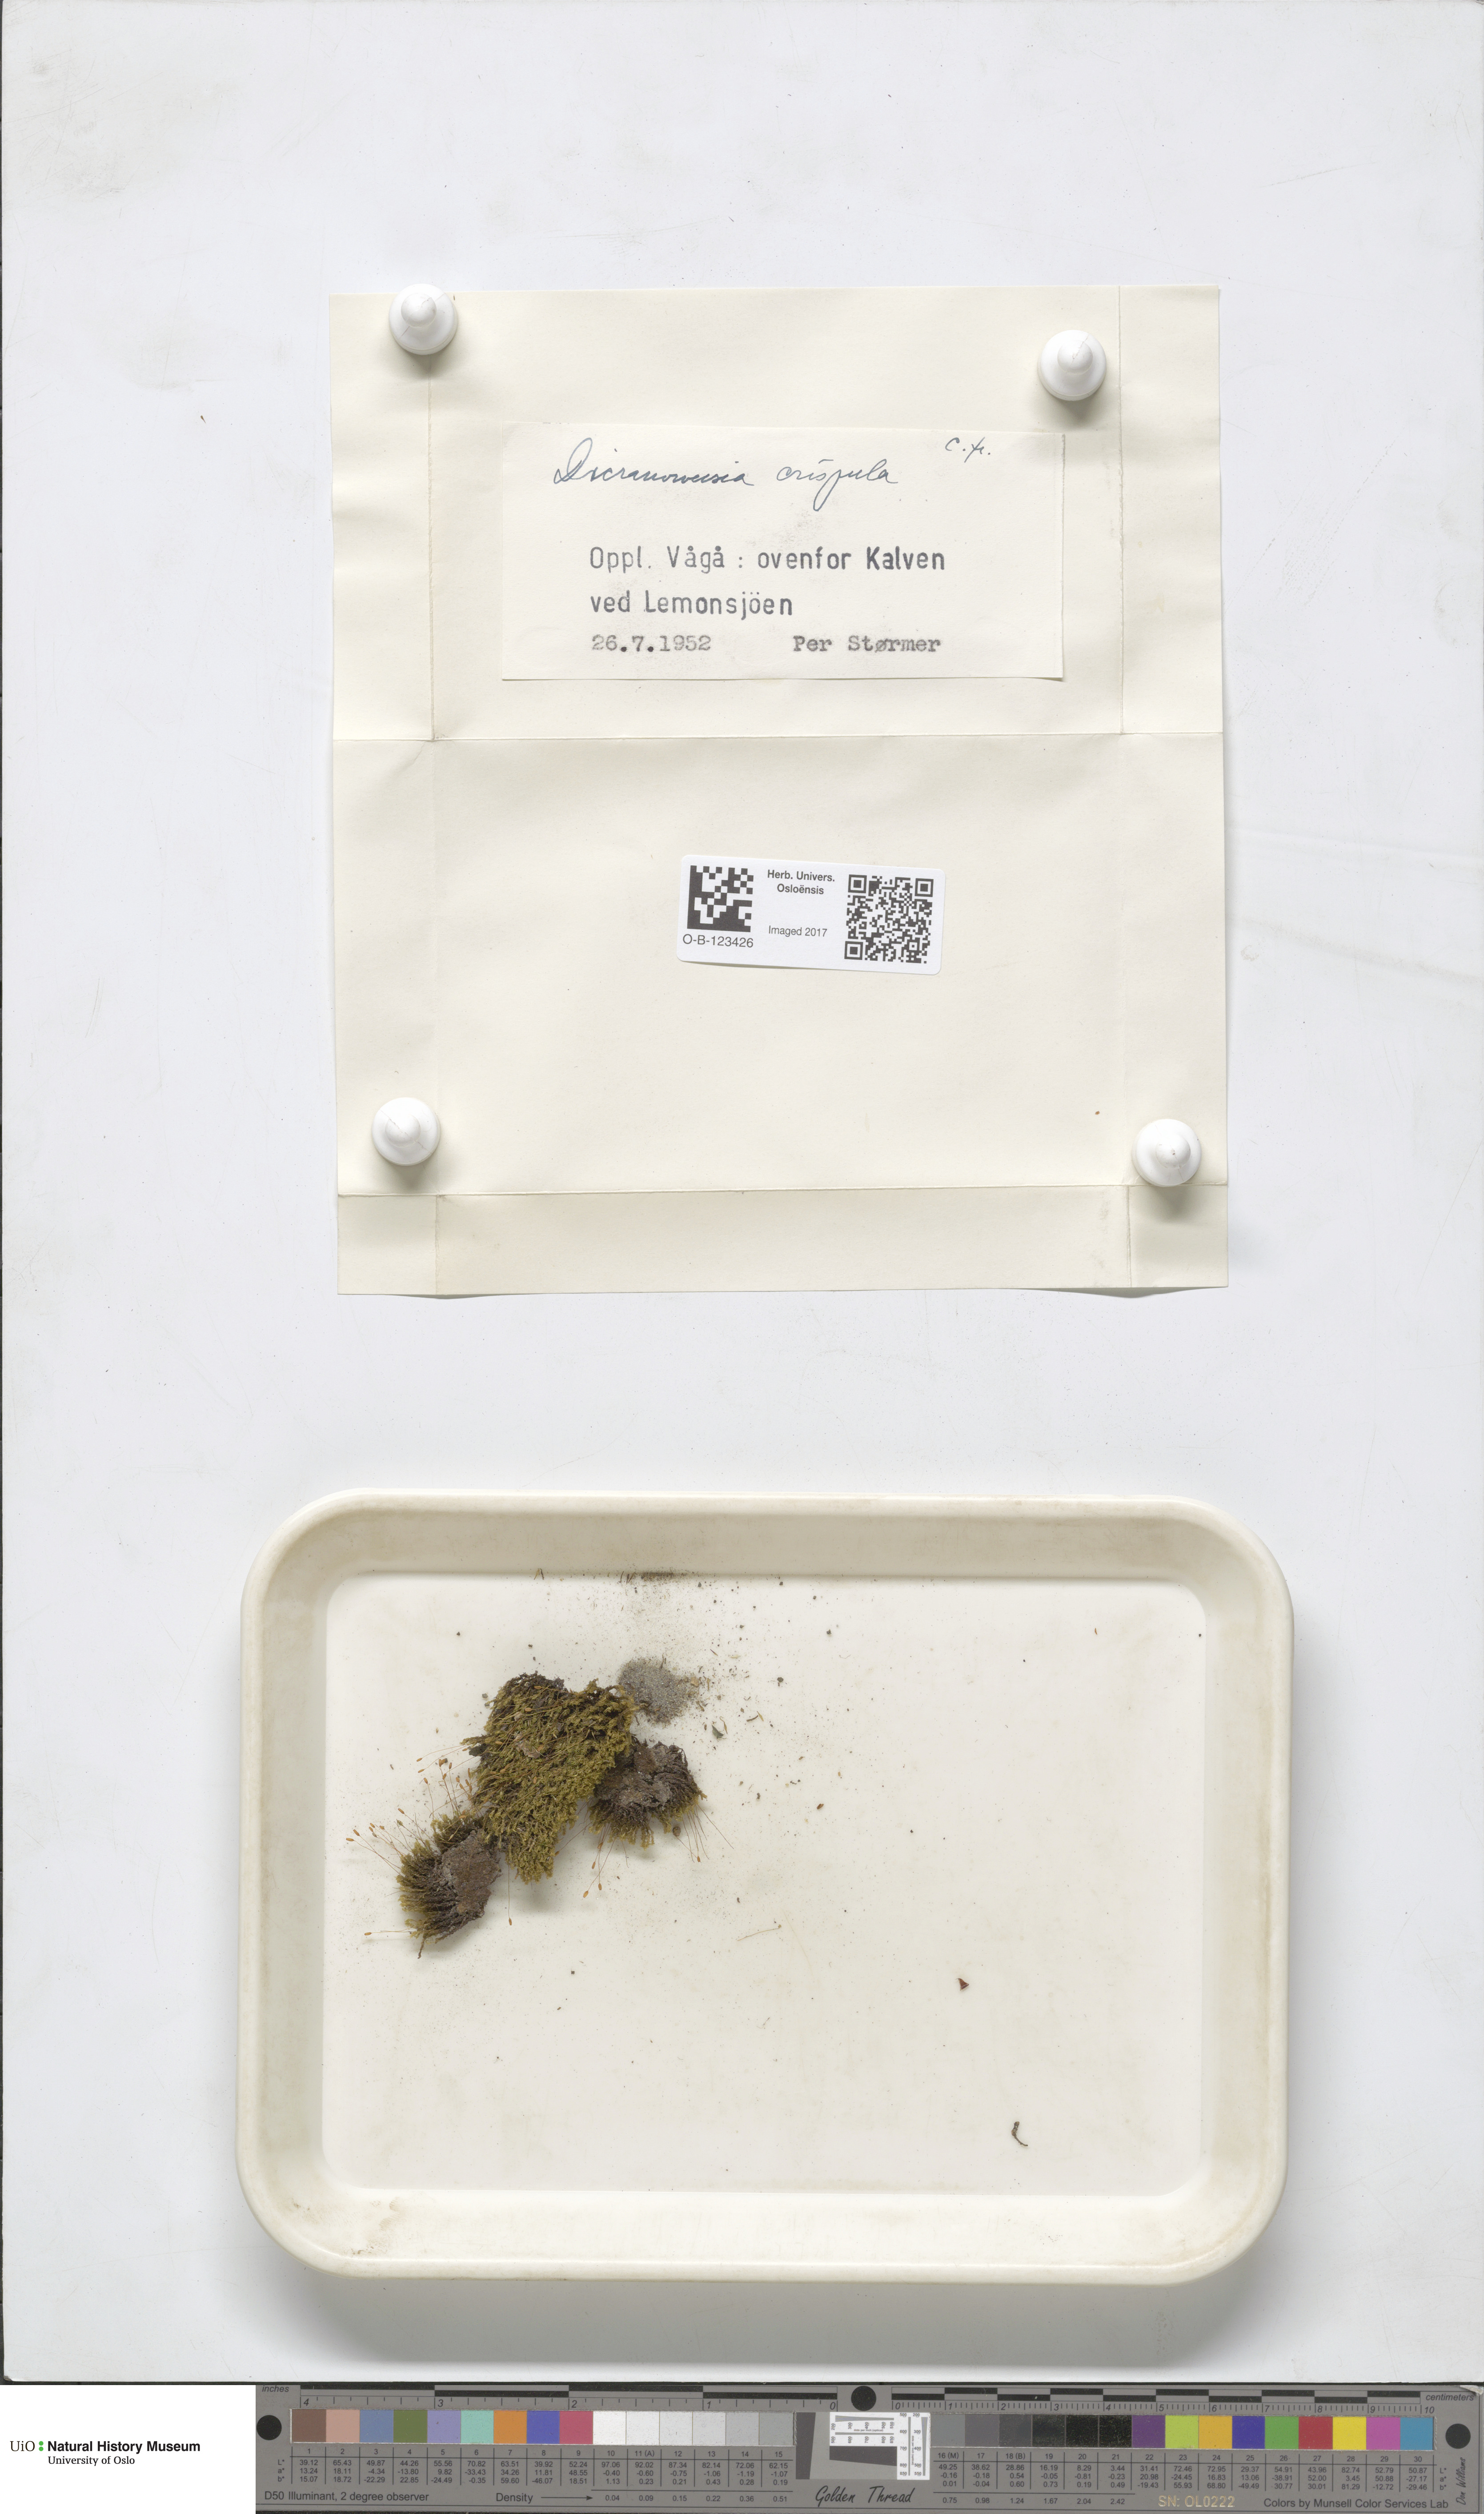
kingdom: Plantae
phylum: Bryophyta
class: Bryopsida
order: Scouleriales
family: Hymenolomataceae
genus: Hymenoloma
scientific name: Hymenoloma crispulum
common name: Mountain pincushion
